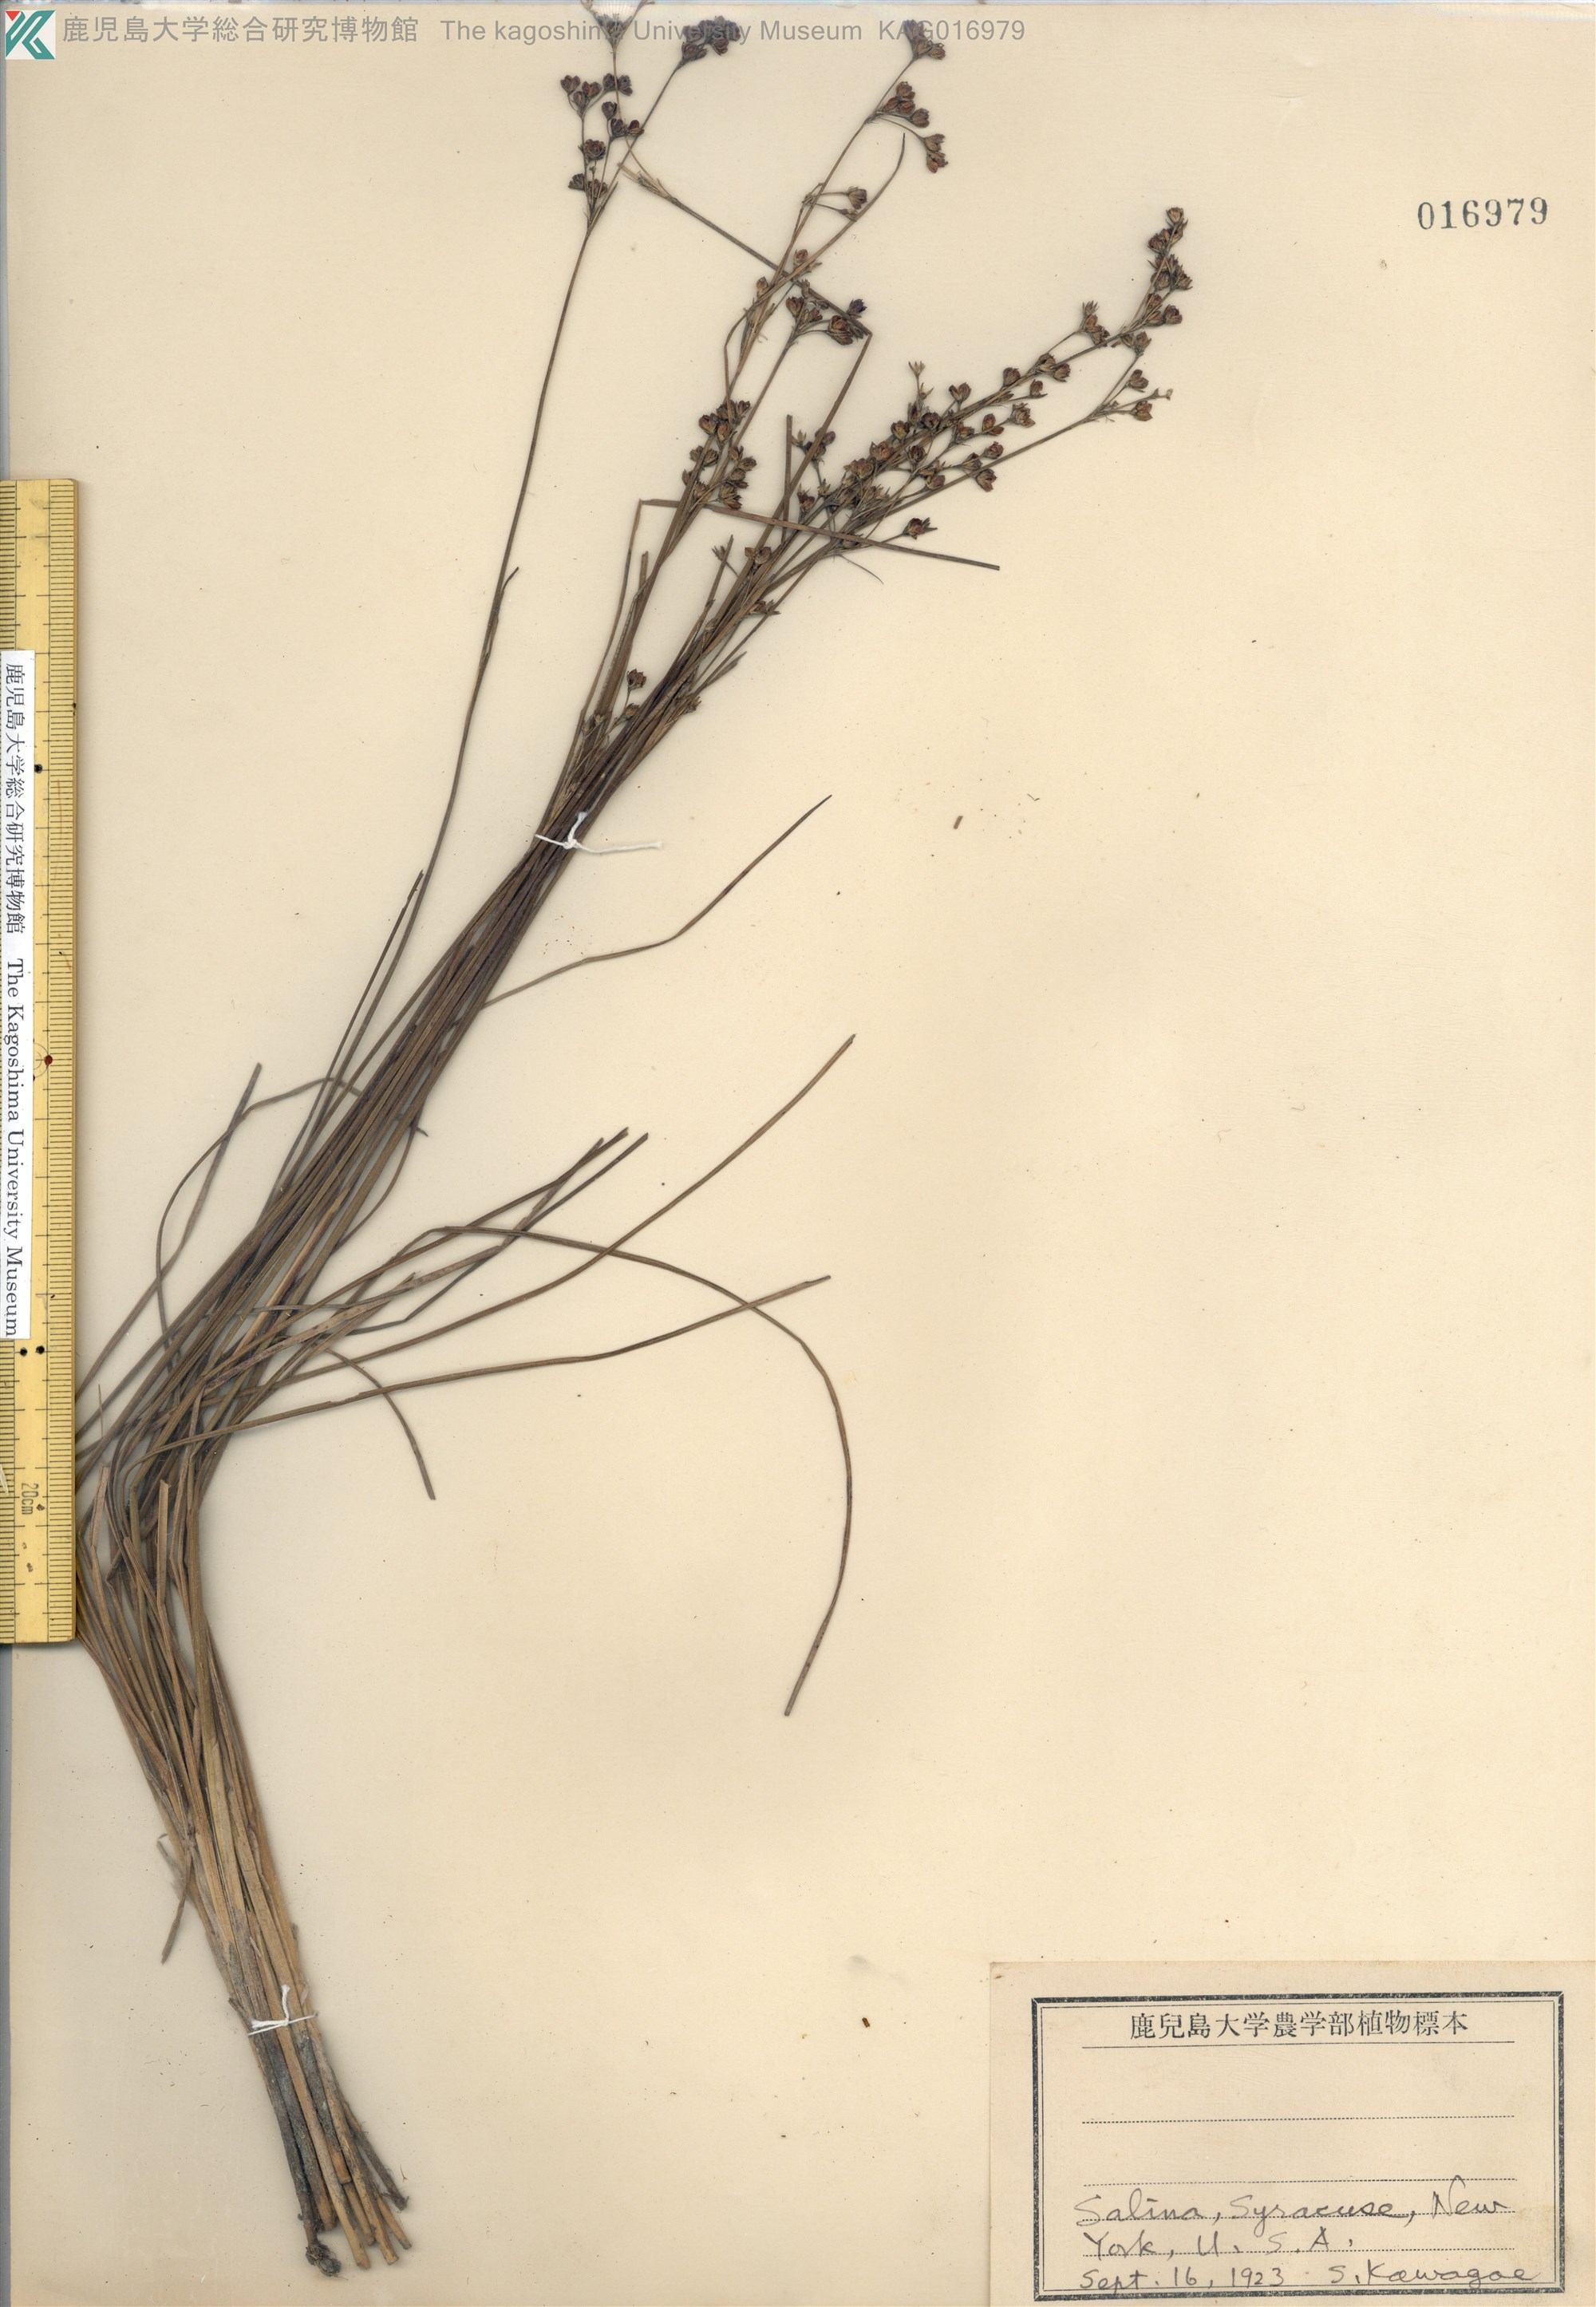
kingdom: Plantae
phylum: Tracheophyta
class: Liliopsida
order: Poales
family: Juncaceae
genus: Juncus
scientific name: Juncus fauriensis
